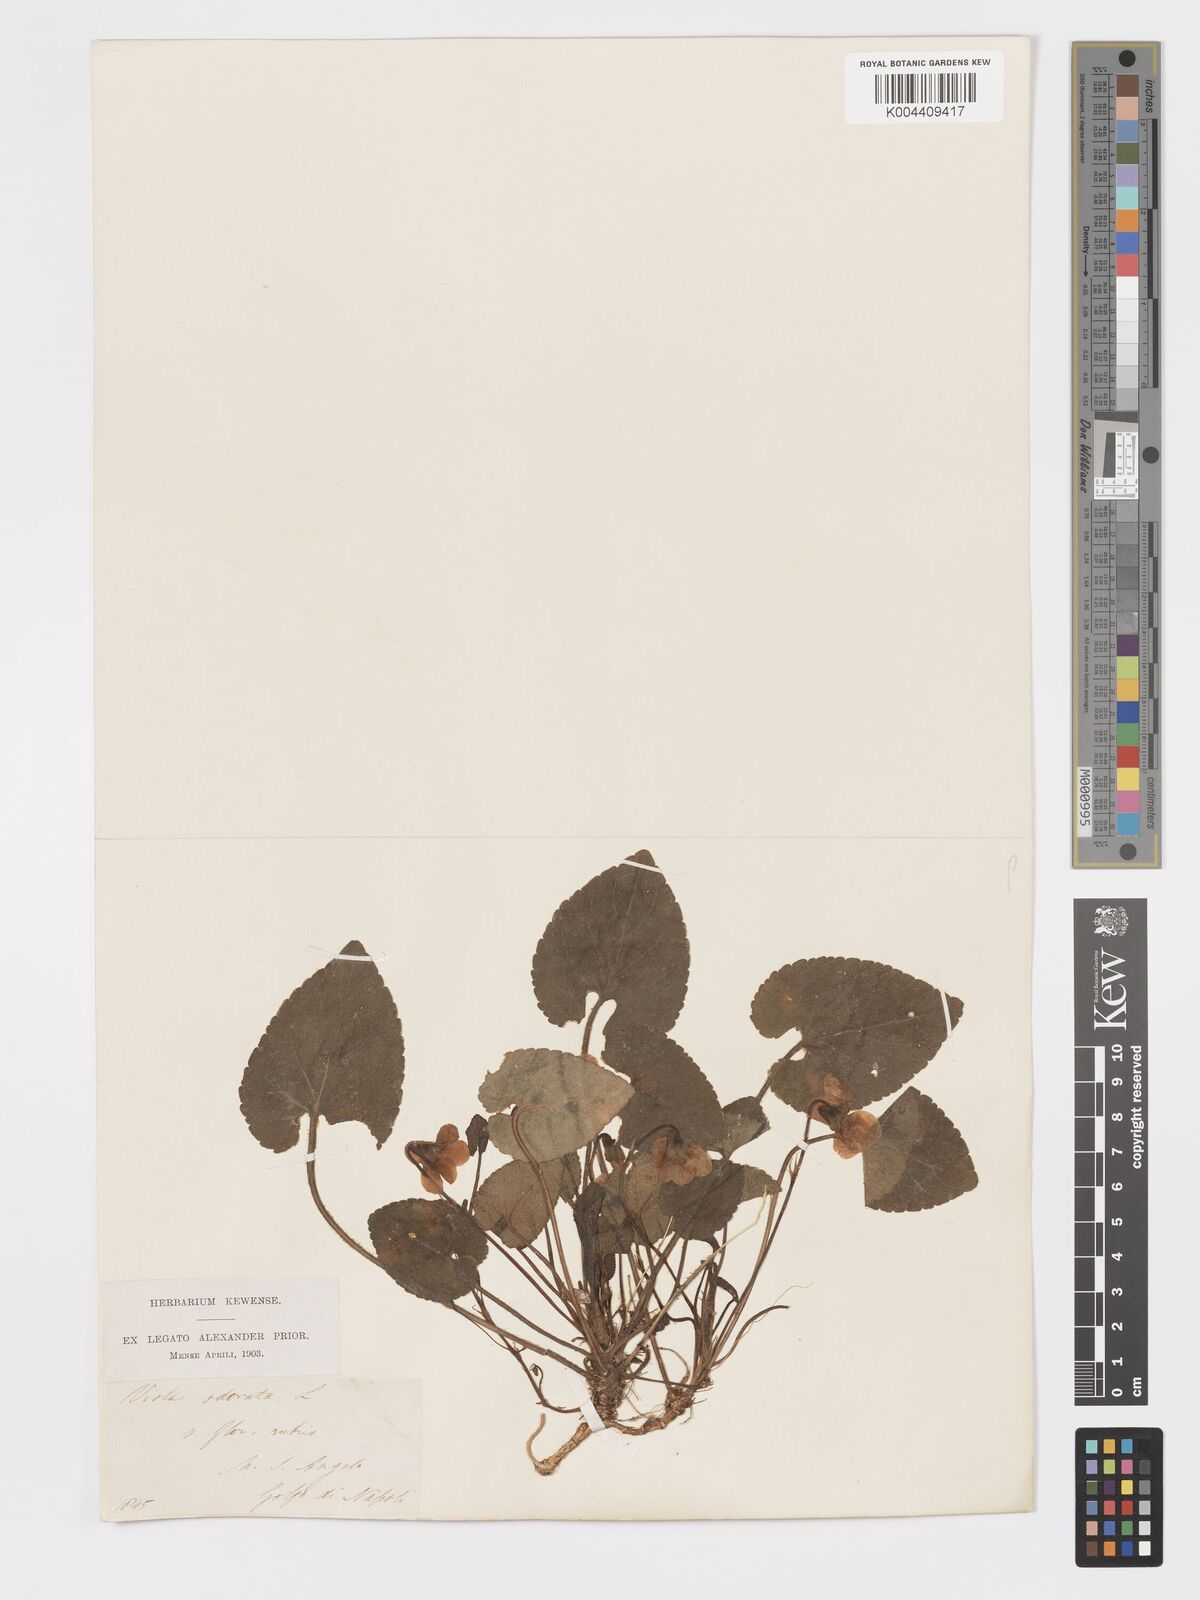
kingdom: Plantae
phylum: Tracheophyta
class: Magnoliopsida
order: Malpighiales
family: Violaceae
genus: Viola
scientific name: Viola alba
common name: White violet
